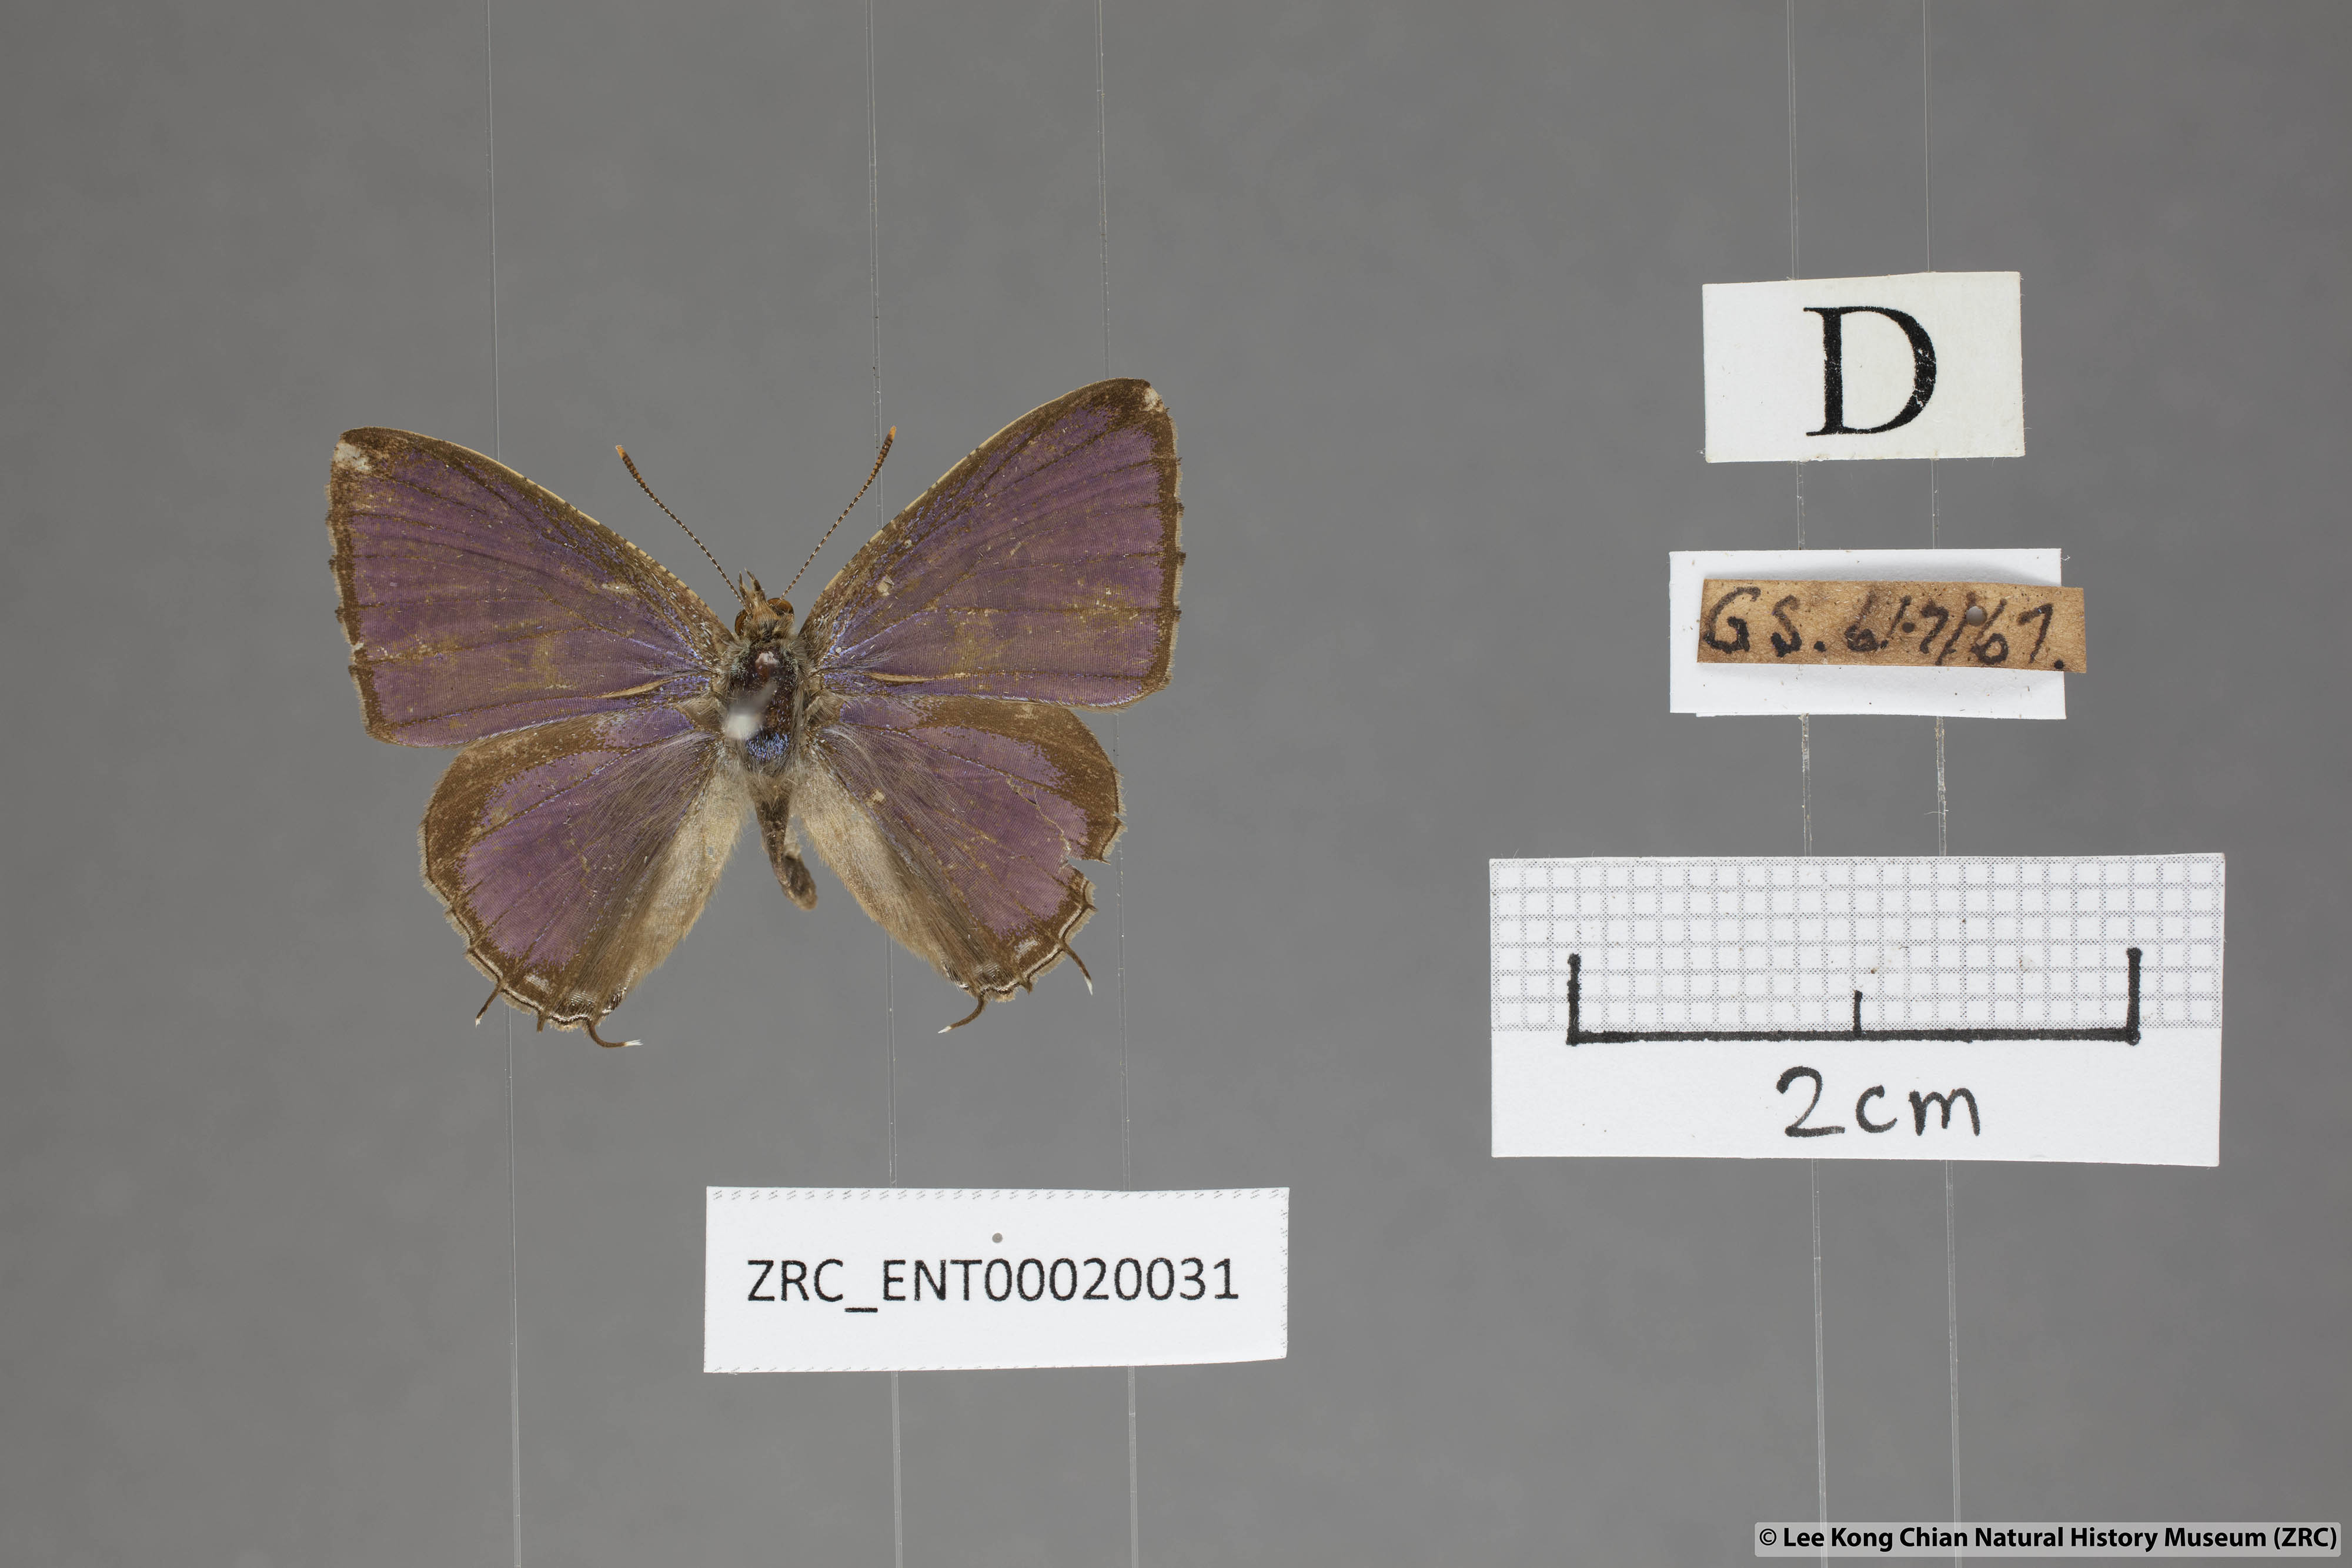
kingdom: Animalia
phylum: Arthropoda
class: Insecta
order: Lepidoptera
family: Lycaenidae
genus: Catapaecilma
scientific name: Catapaecilma major
